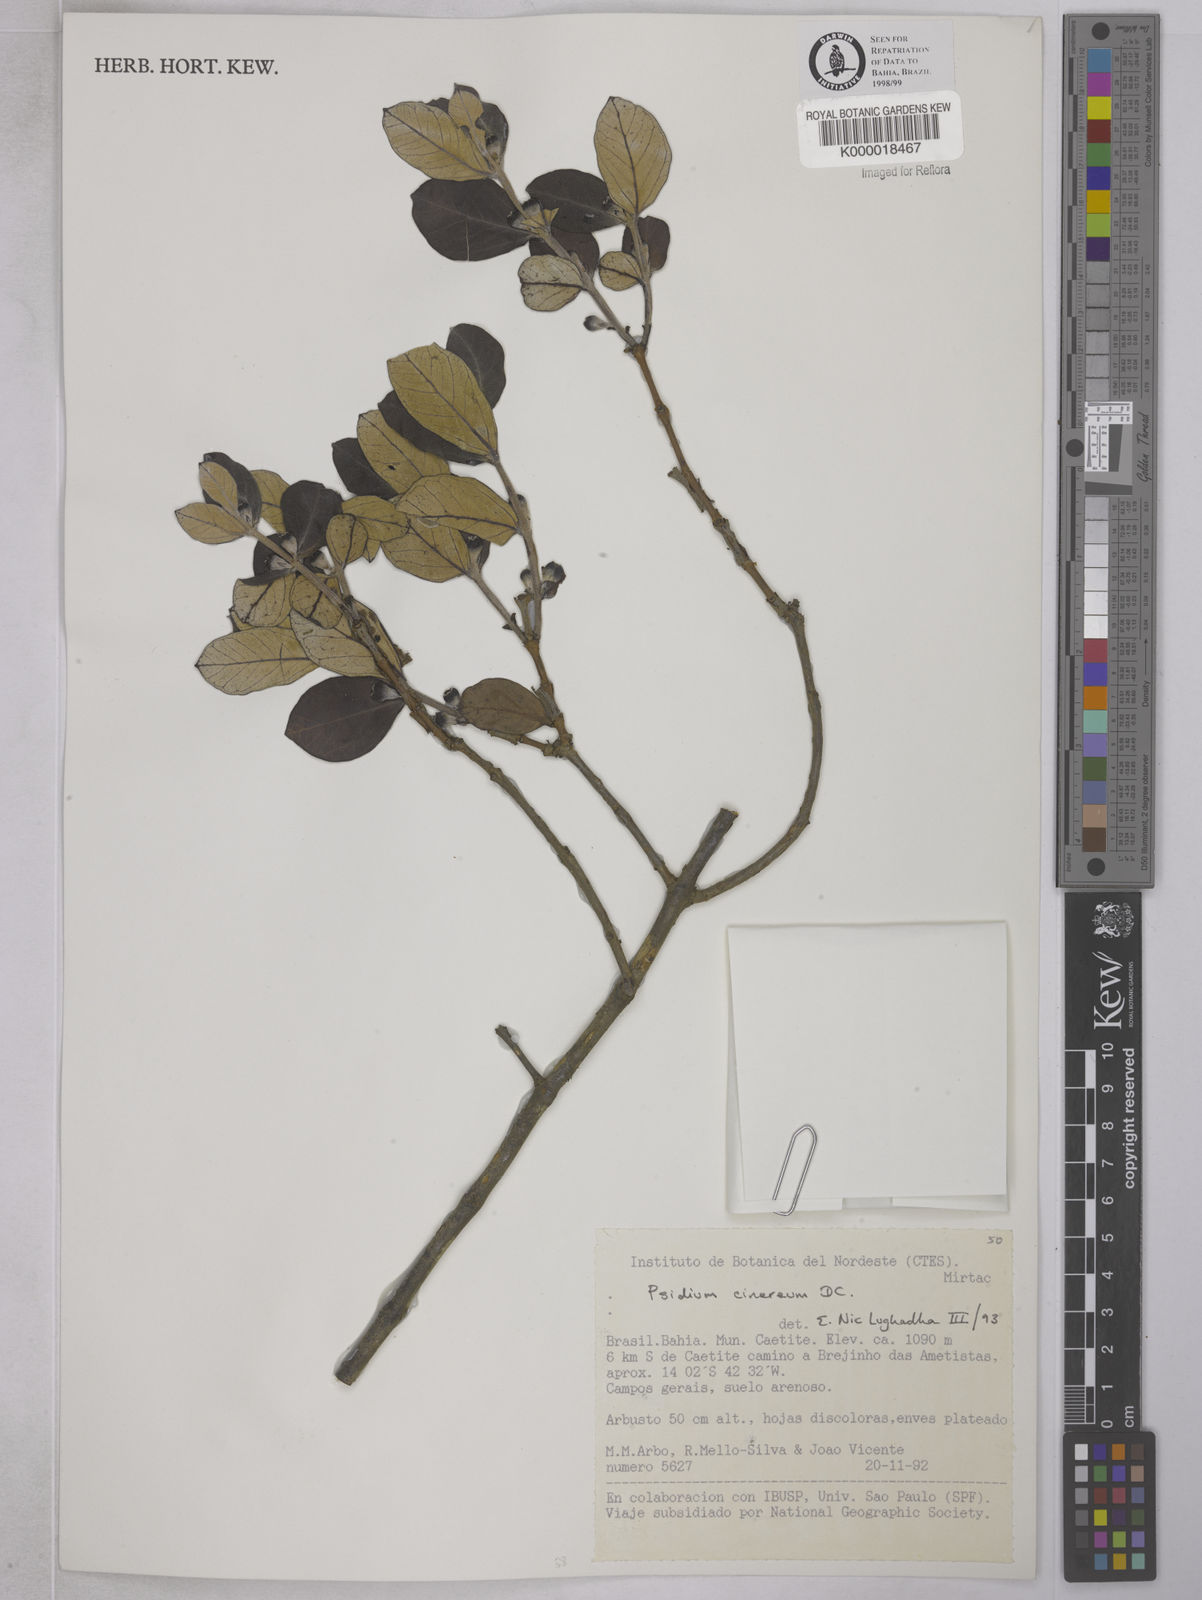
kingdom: Plantae
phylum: Tracheophyta
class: Magnoliopsida
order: Myrtales
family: Myrtaceae
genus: Psidium
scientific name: Psidium grandifolium
